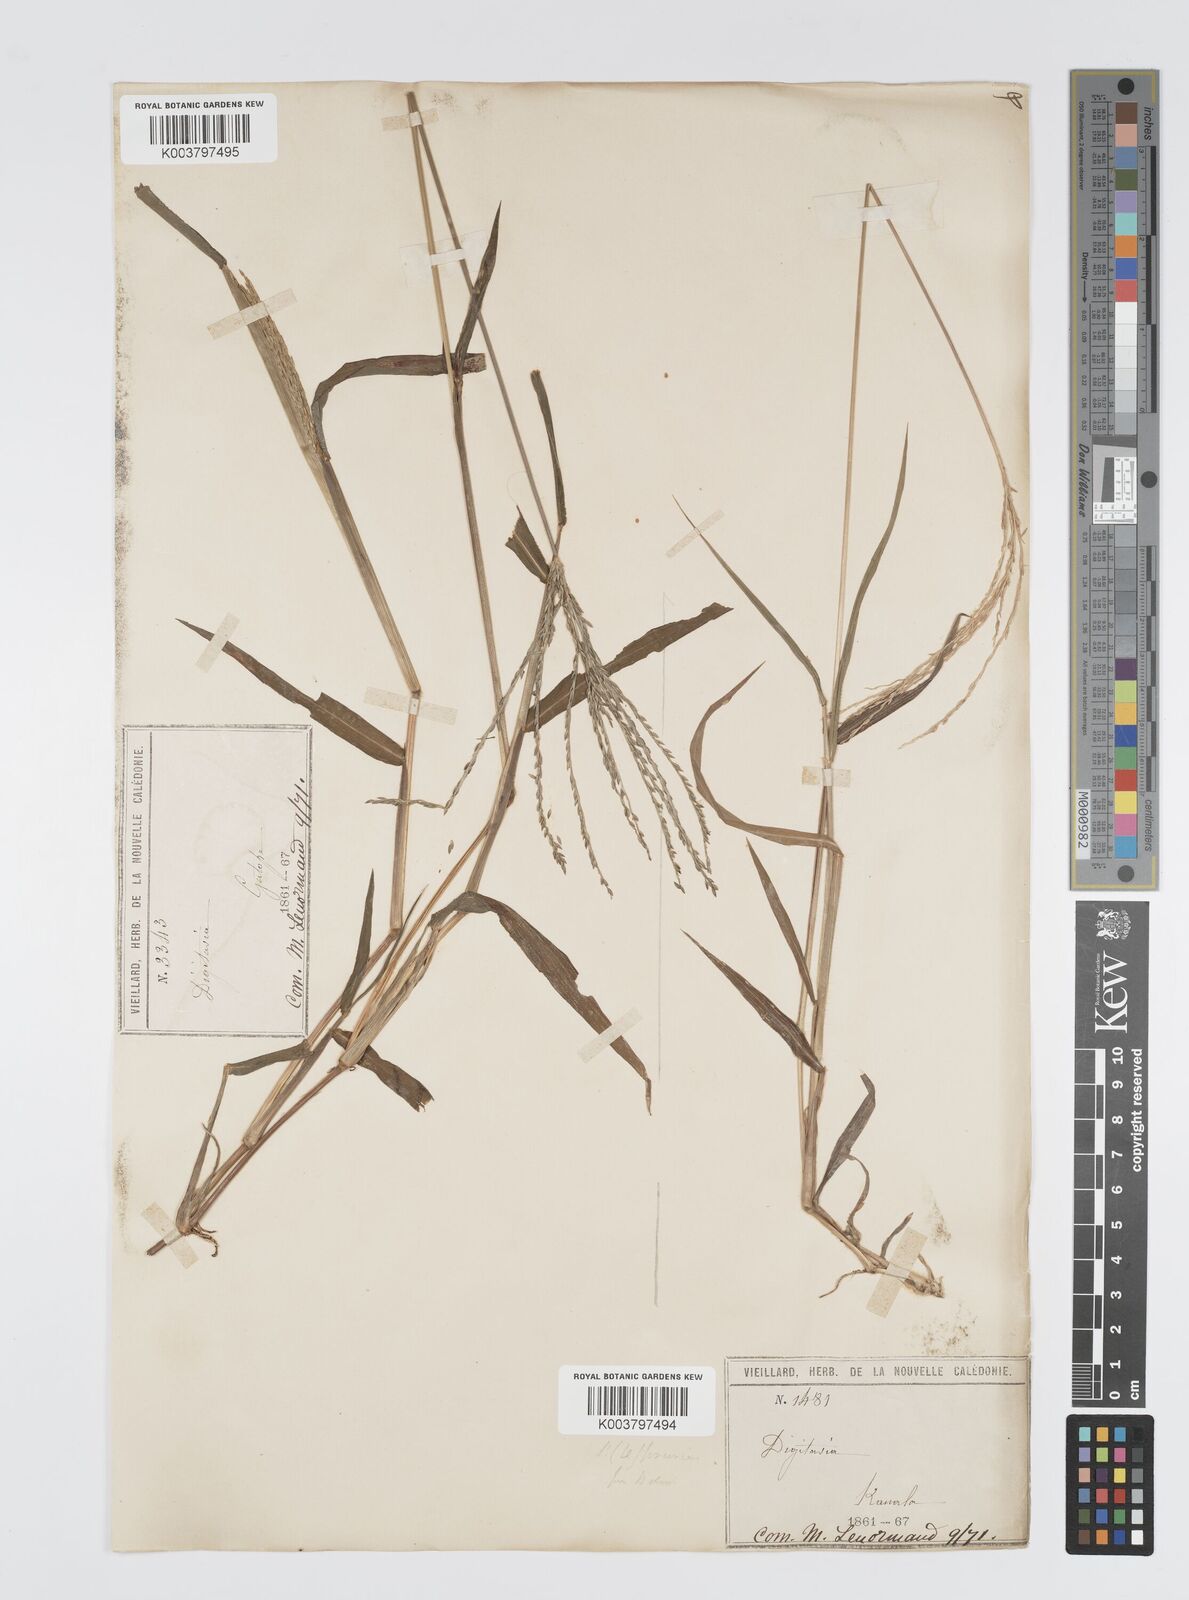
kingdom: Plantae
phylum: Tracheophyta
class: Liliopsida
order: Poales
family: Poaceae
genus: Digitaria
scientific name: Digitaria setigera
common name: East indian crabgrass
